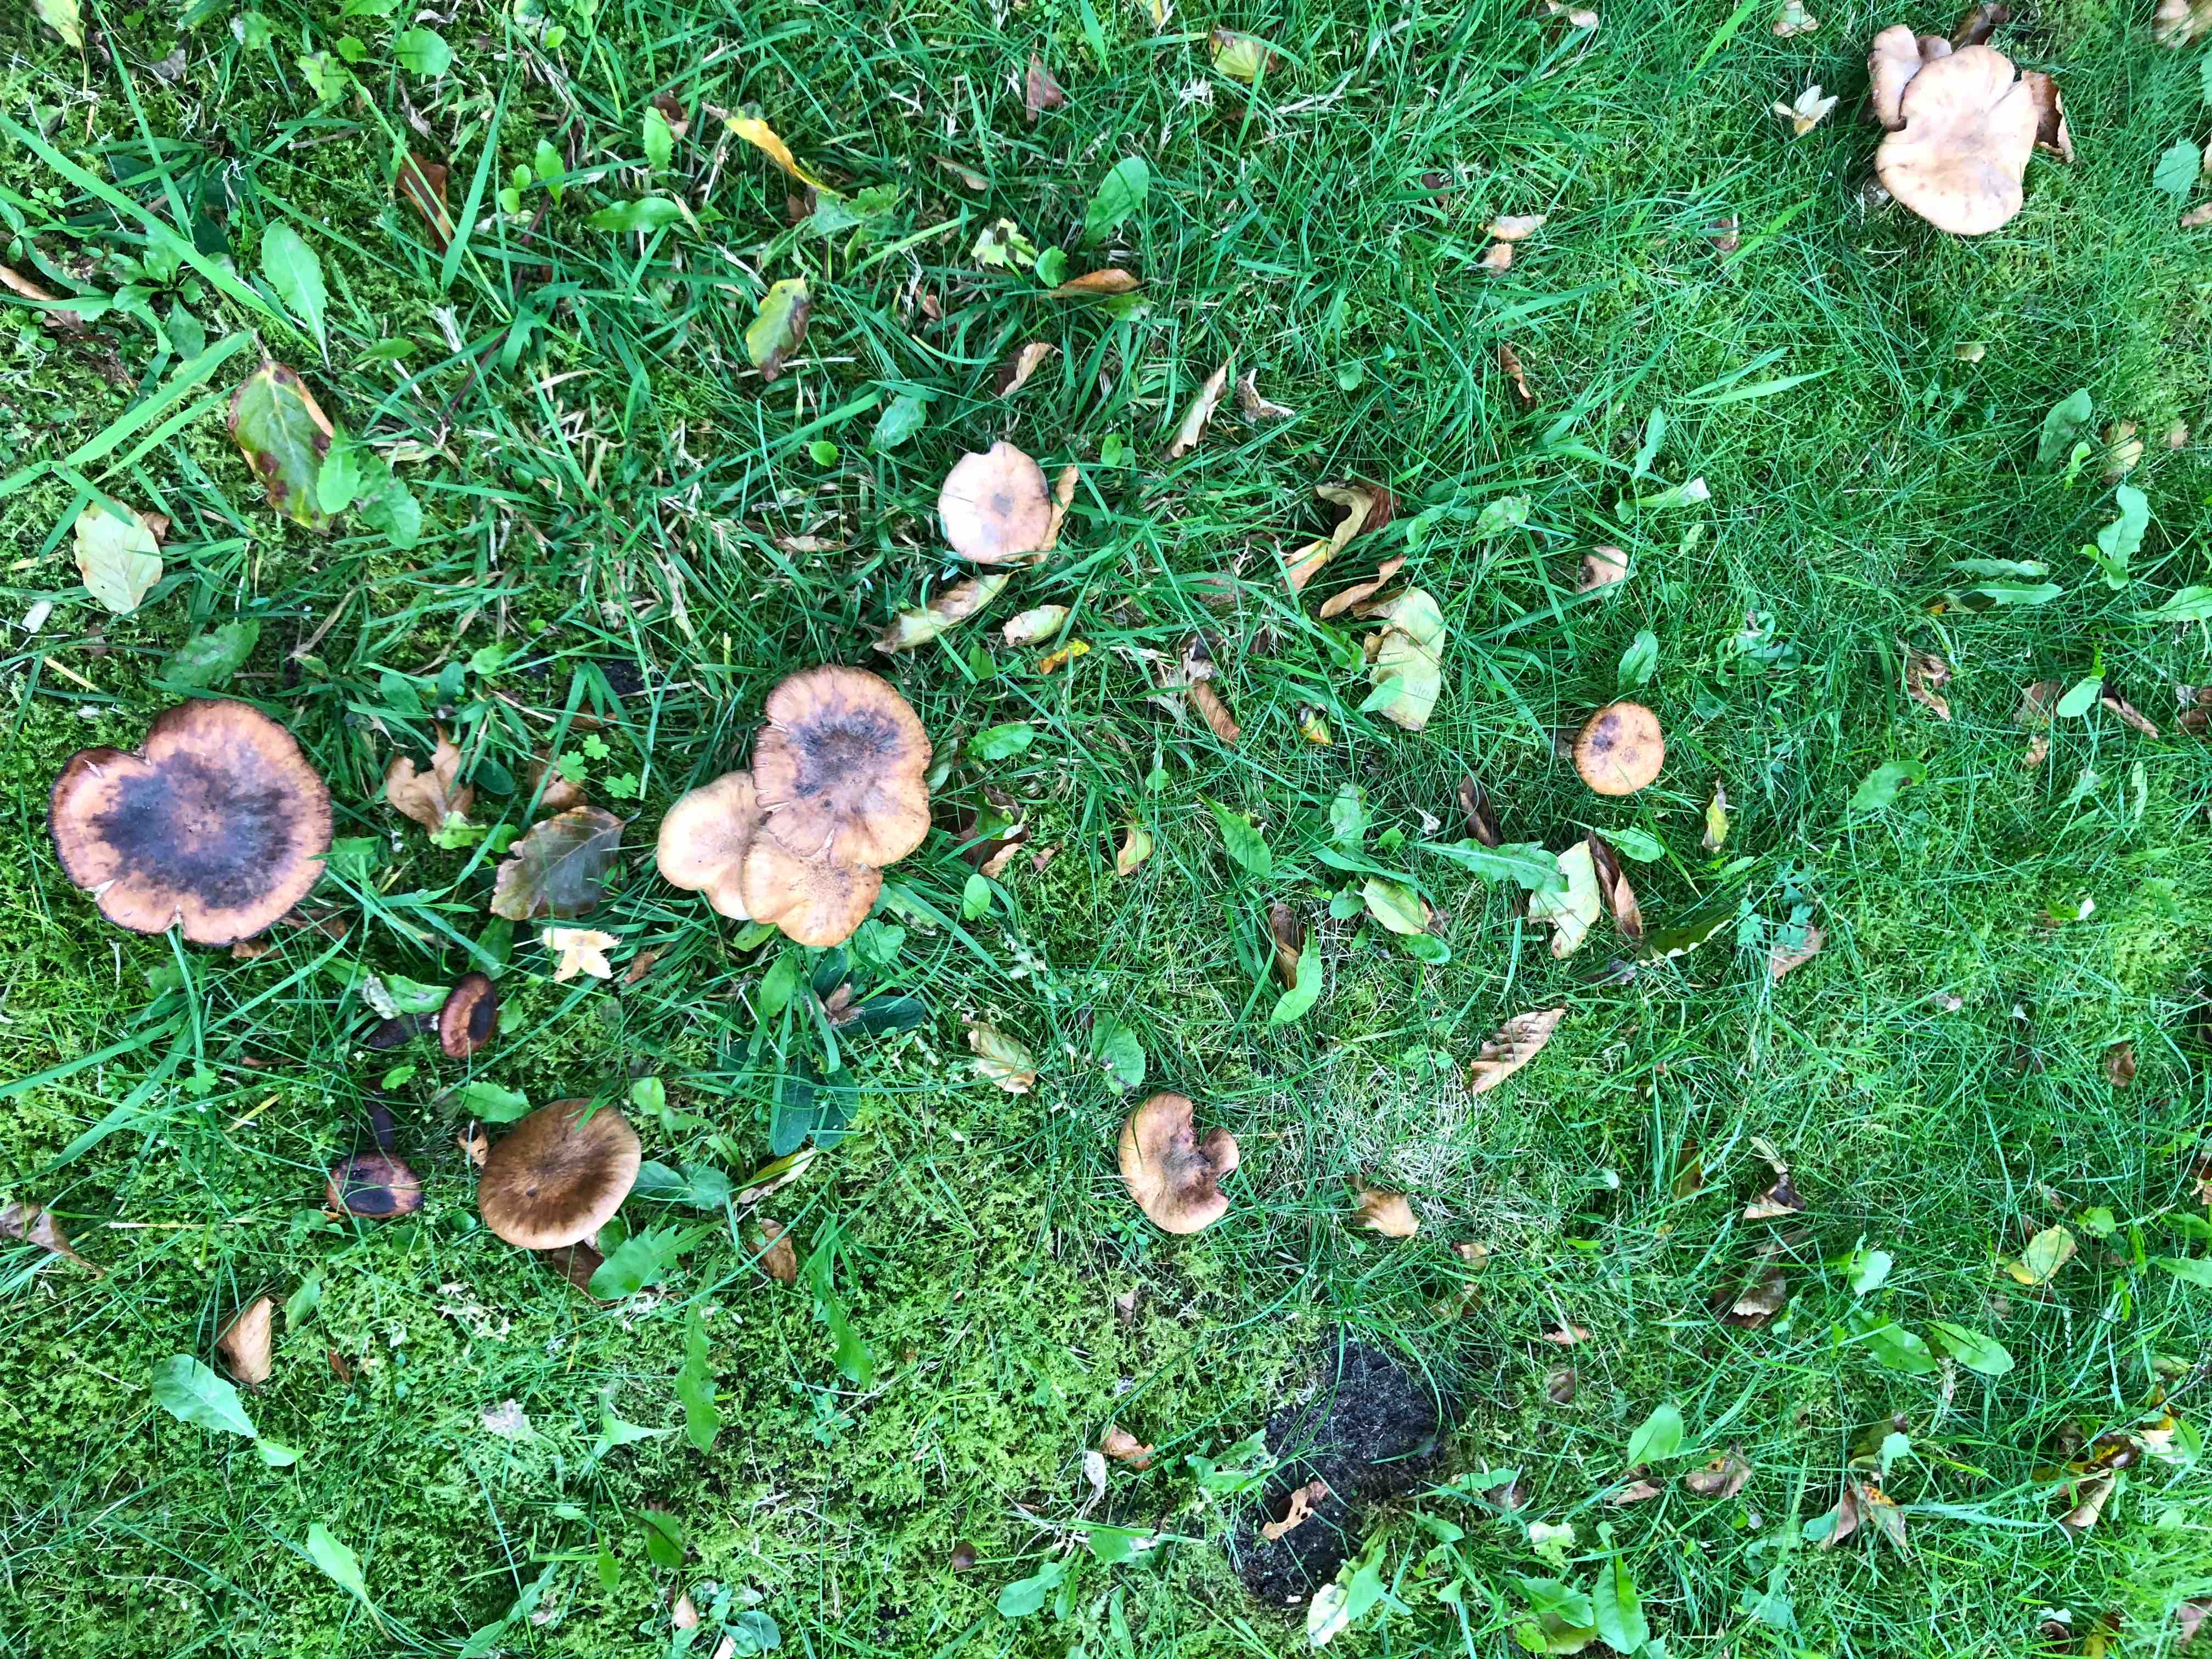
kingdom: Fungi
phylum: Basidiomycota
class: Agaricomycetes
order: Agaricales
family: Physalacriaceae
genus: Armillaria
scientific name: Armillaria lutea
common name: køllestokket honningsvamp
